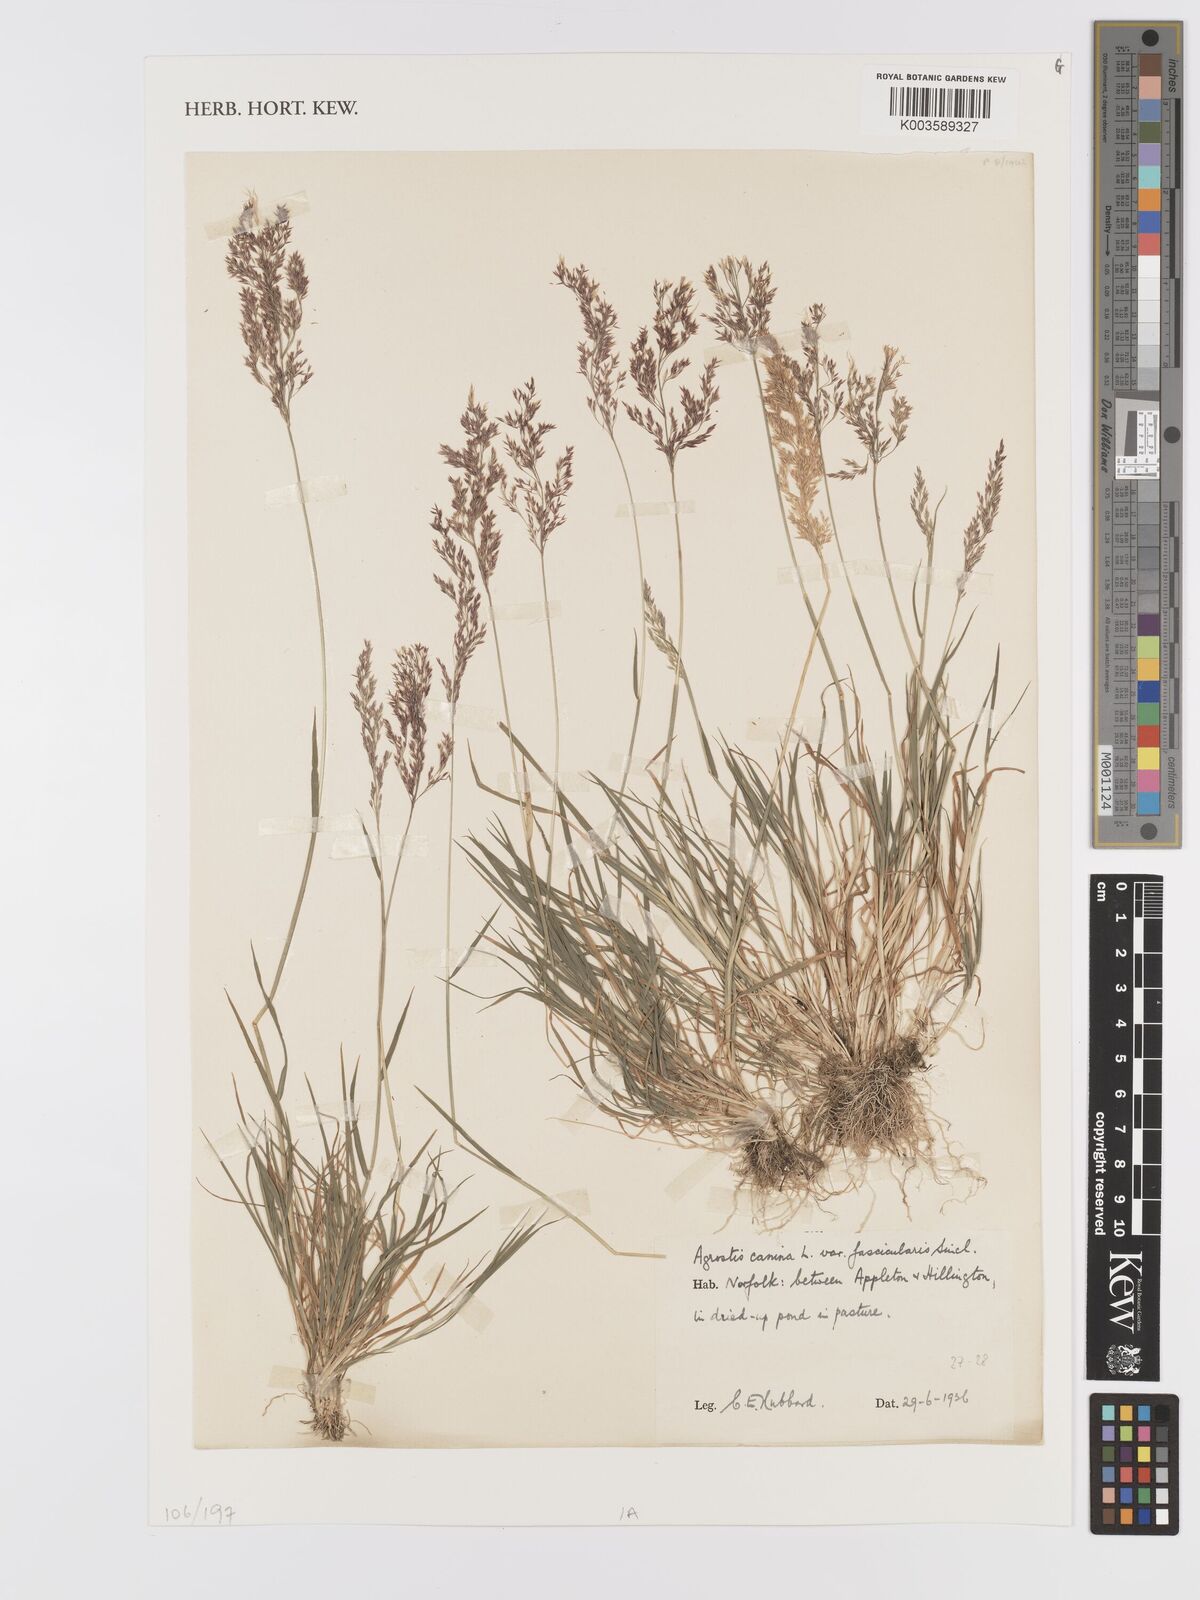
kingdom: Plantae
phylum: Tracheophyta
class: Liliopsida
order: Poales
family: Poaceae
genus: Agrostis
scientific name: Agrostis canina
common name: Velvet bent
